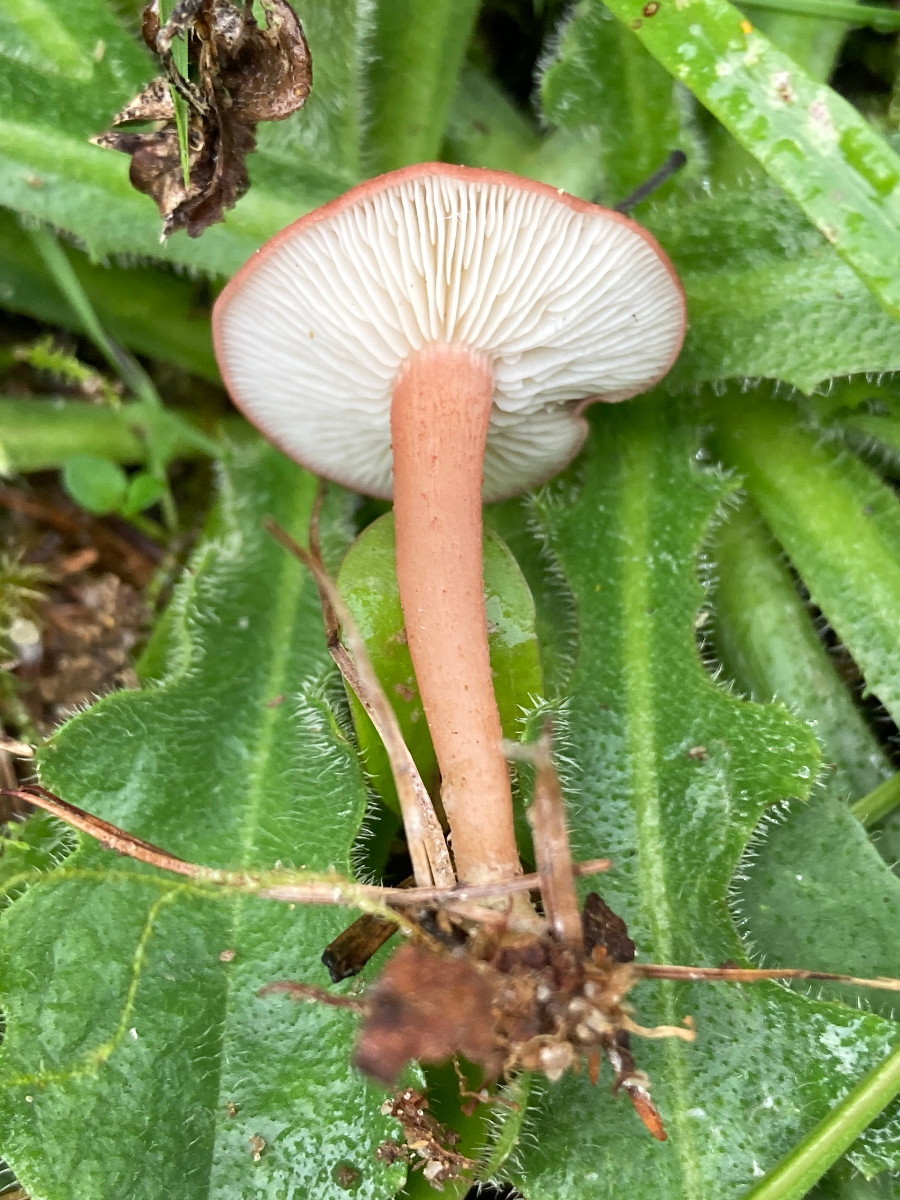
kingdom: Fungi
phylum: Basidiomycota
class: Agaricomycetes
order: Agaricales
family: Lyophyllaceae
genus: Calocybe
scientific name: Calocybe carnea
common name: rosa fagerhat
